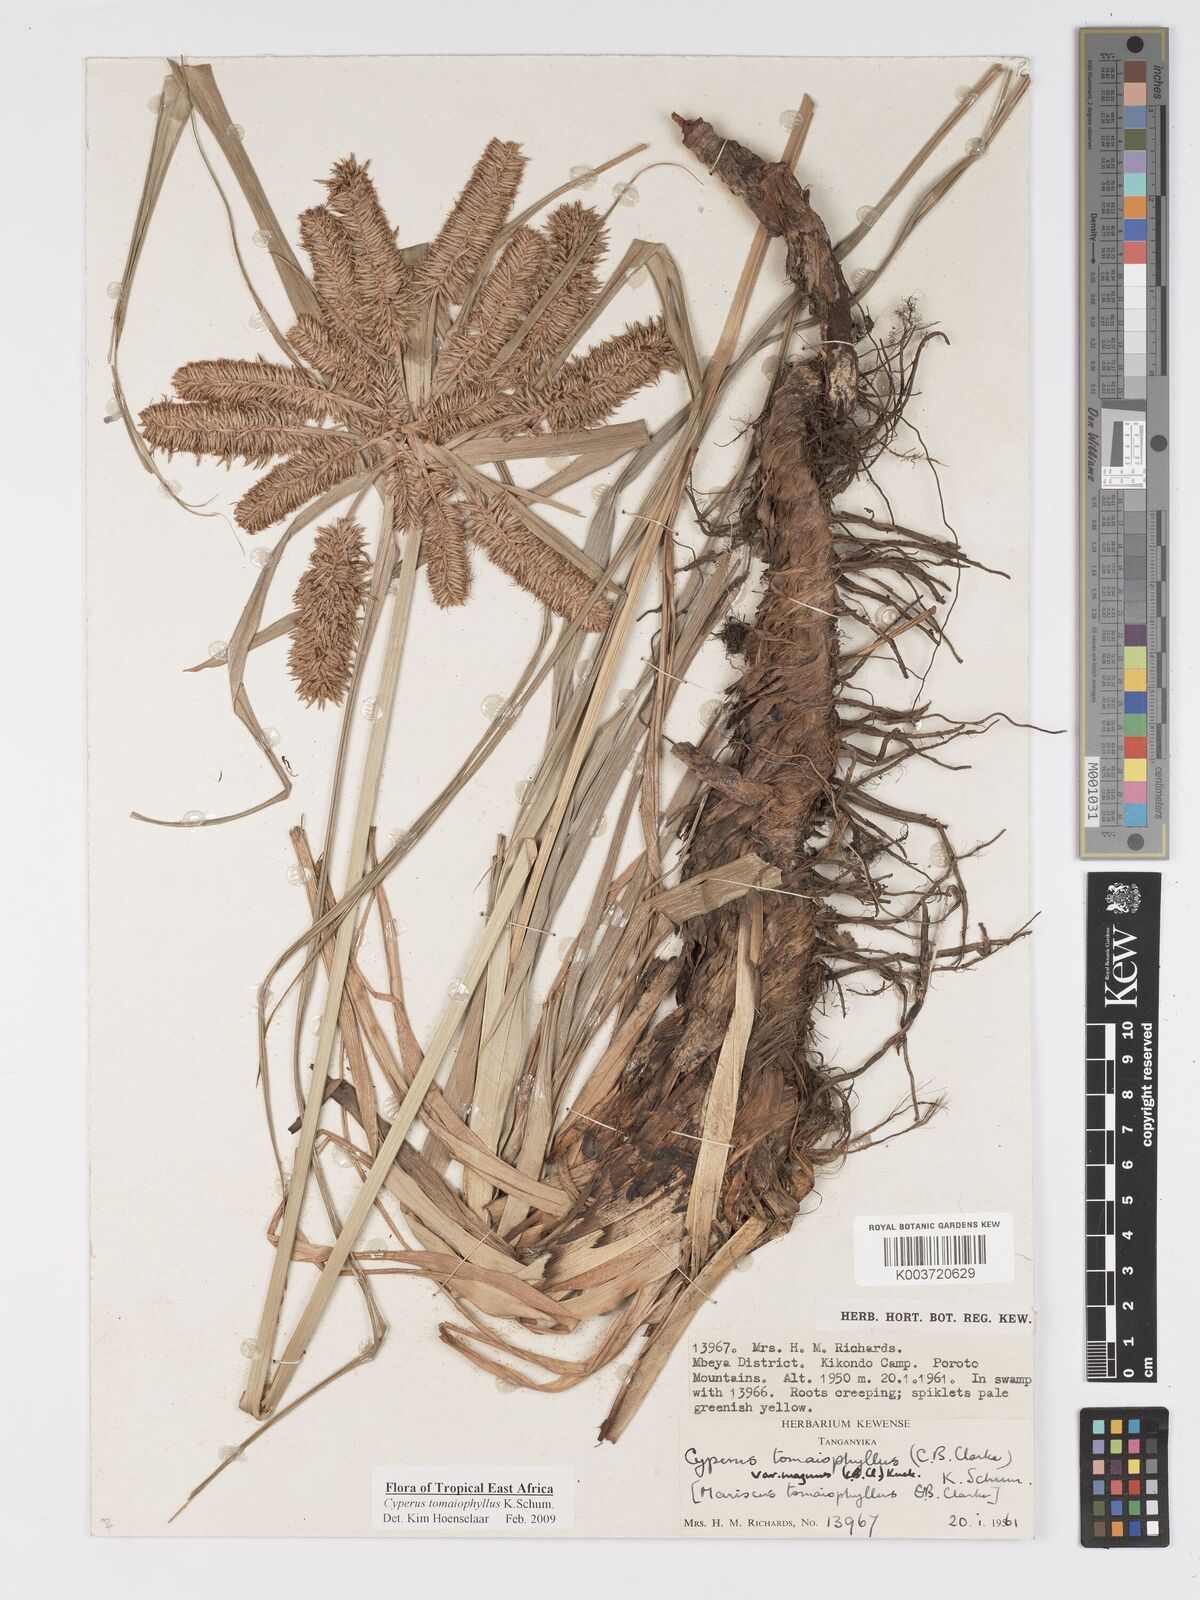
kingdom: Plantae
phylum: Tracheophyta
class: Liliopsida
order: Poales
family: Cyperaceae
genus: Cyperus
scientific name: Cyperus tomaiophyllus
